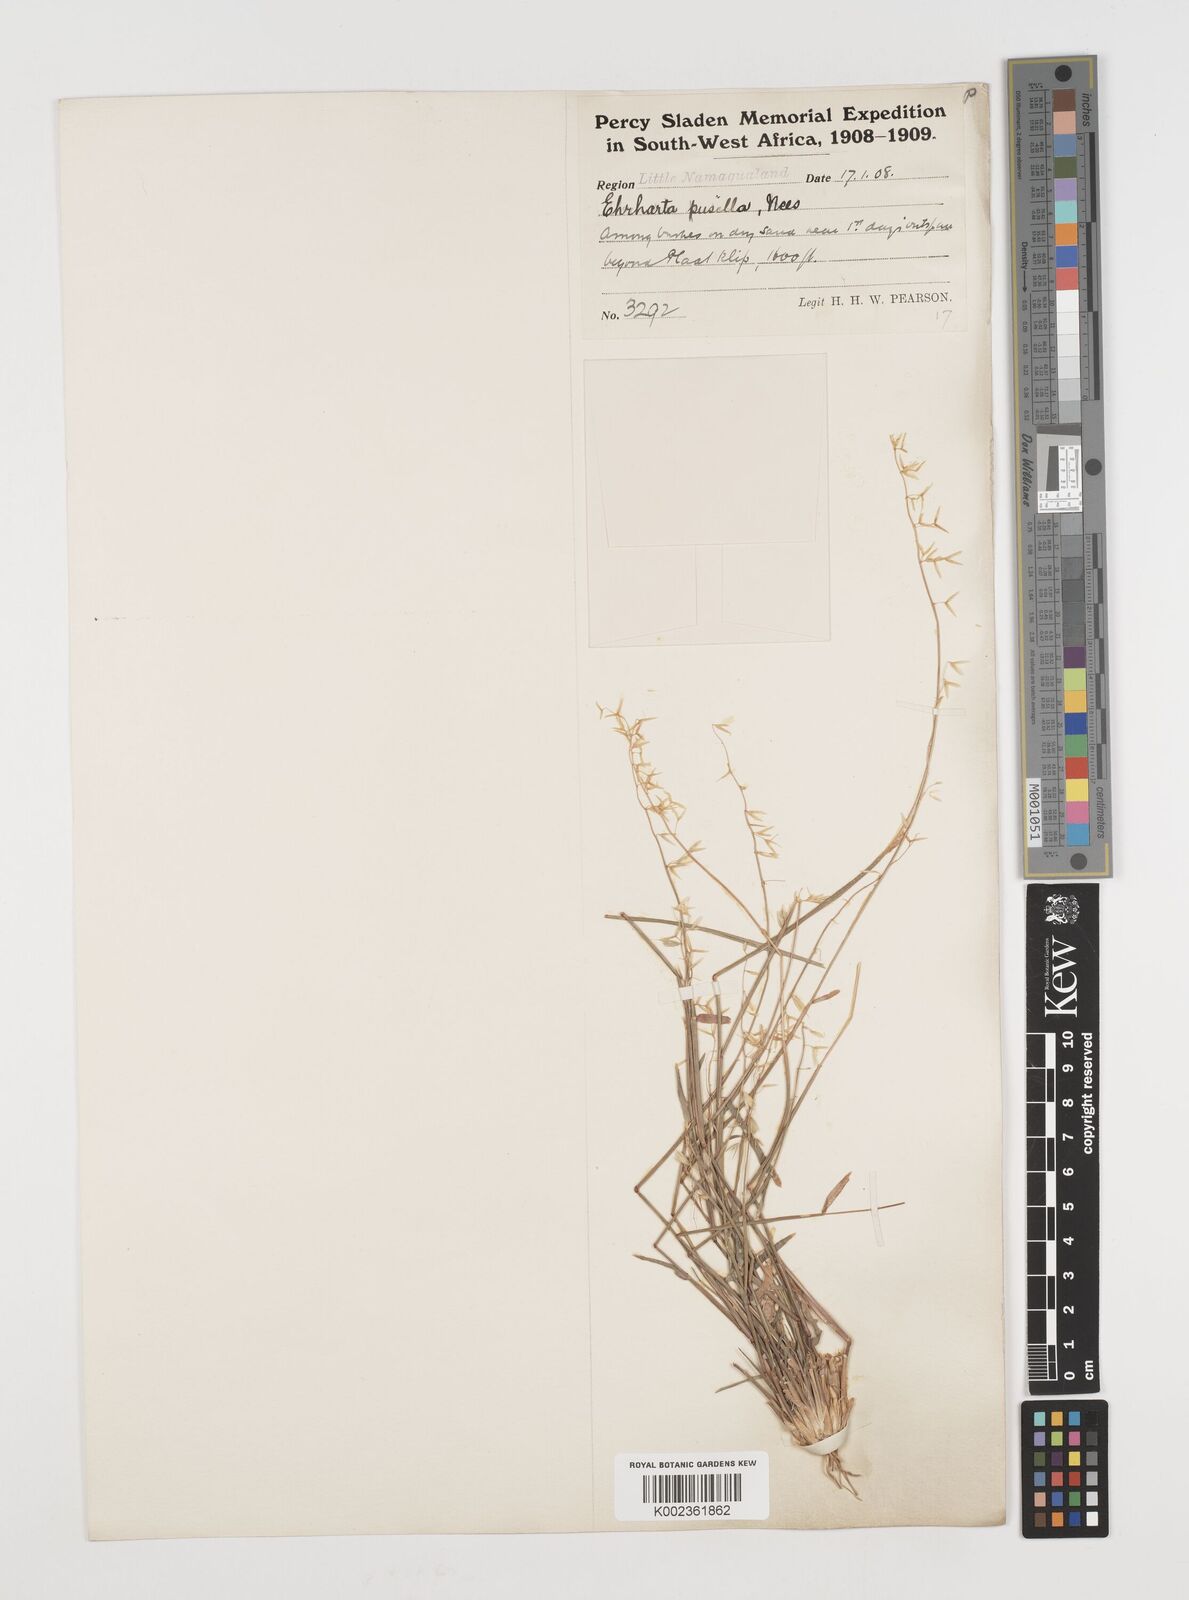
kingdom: Plantae
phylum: Tracheophyta
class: Liliopsida
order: Poales
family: Poaceae
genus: Ehrharta
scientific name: Ehrharta pusilla
